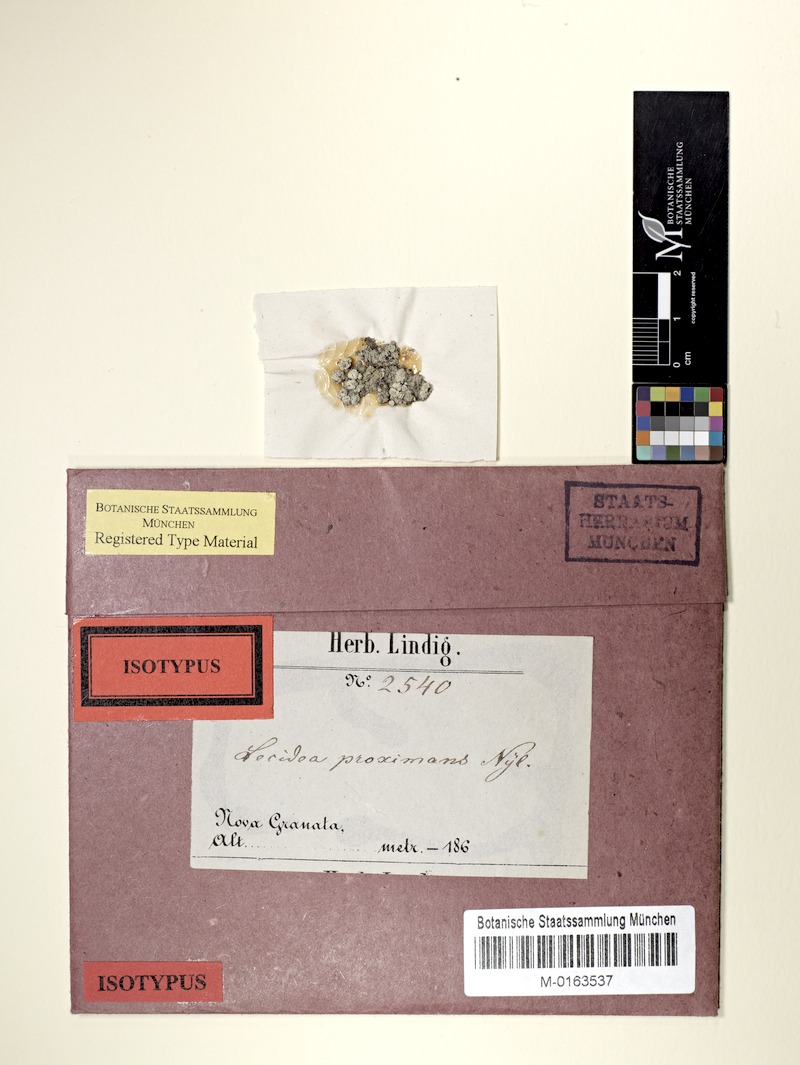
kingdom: Fungi
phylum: Ascomycota
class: Arthoniomycetes
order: Arthoniales
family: Roccellaceae
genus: Lecanactis
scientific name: Lecanactis proximans
